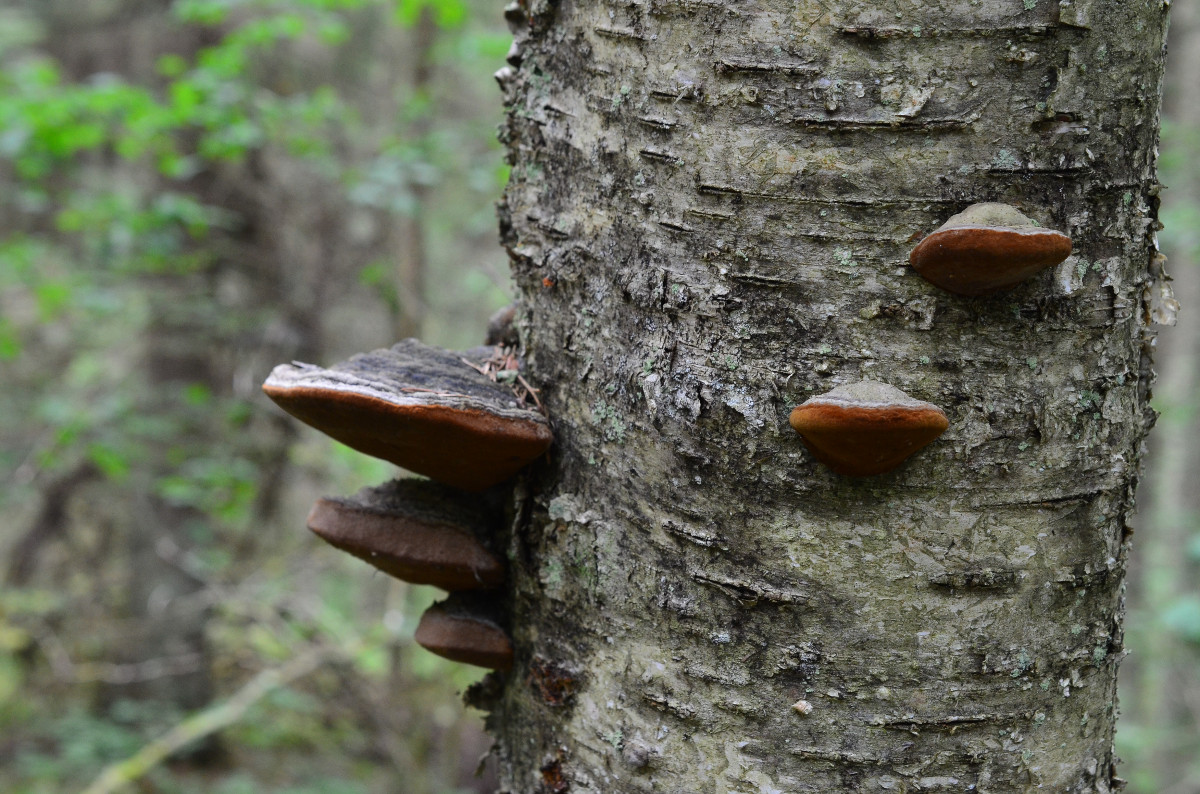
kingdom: Fungi
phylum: Basidiomycota
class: Agaricomycetes
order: Hymenochaetales
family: Hymenochaetaceae
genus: Phellinus
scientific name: Phellinus igniarius
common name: Willow bracket
